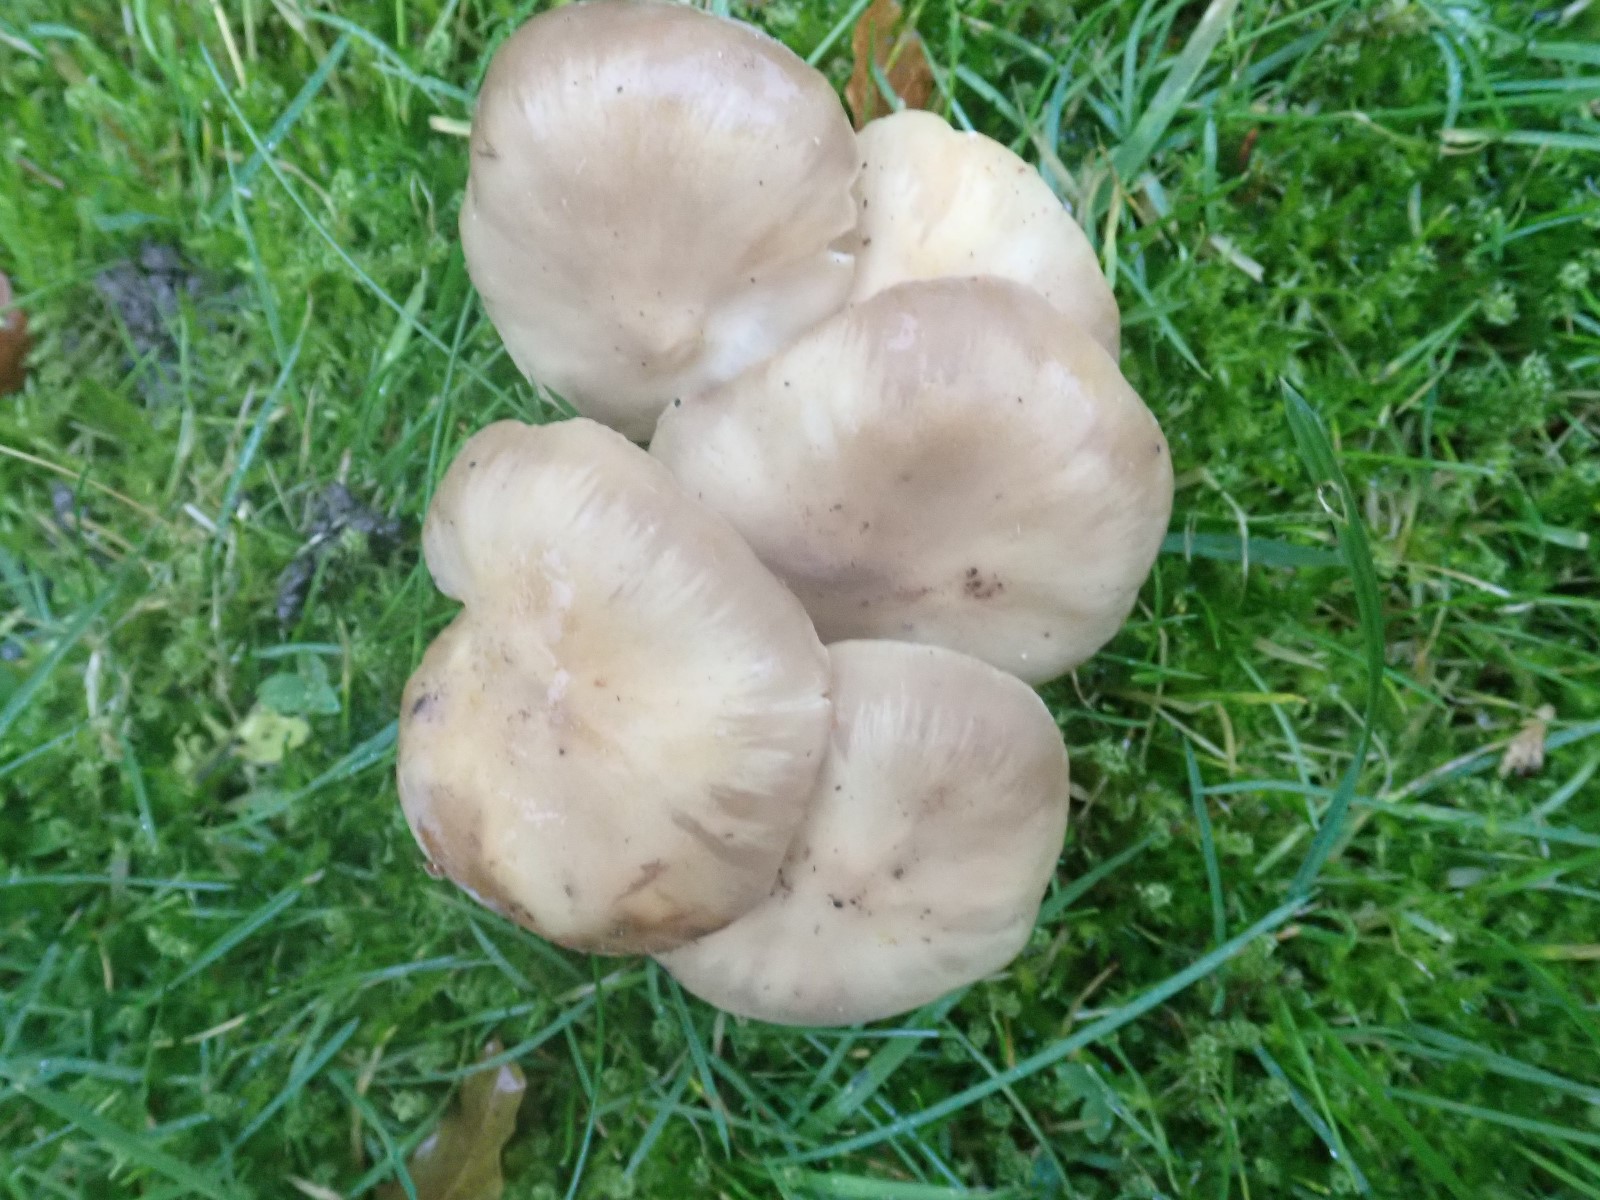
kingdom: Fungi
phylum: Basidiomycota
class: Agaricomycetes
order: Agaricales
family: Tricholomataceae
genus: Leucocybe
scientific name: Leucocybe connata
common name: knippe-tragthat
